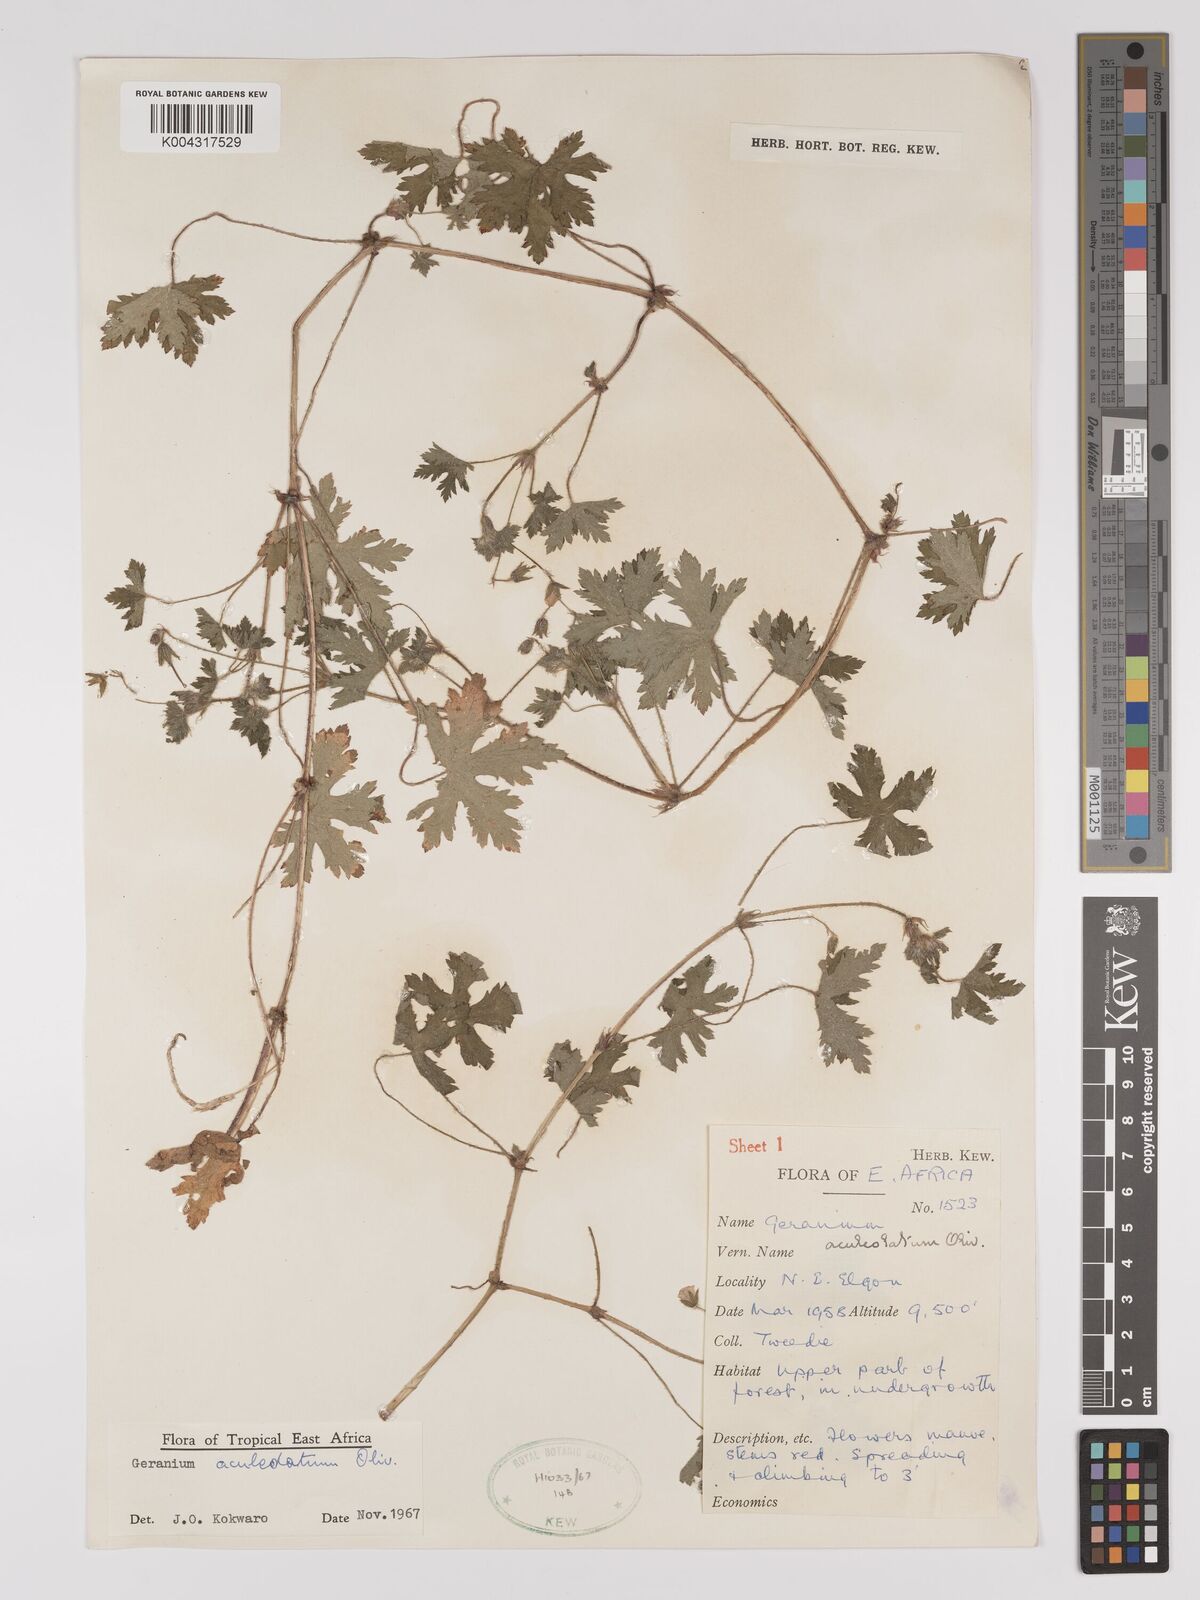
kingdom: Plantae
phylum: Tracheophyta
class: Magnoliopsida
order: Geraniales
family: Geraniaceae
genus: Geranium
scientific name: Geranium aculeolatum
